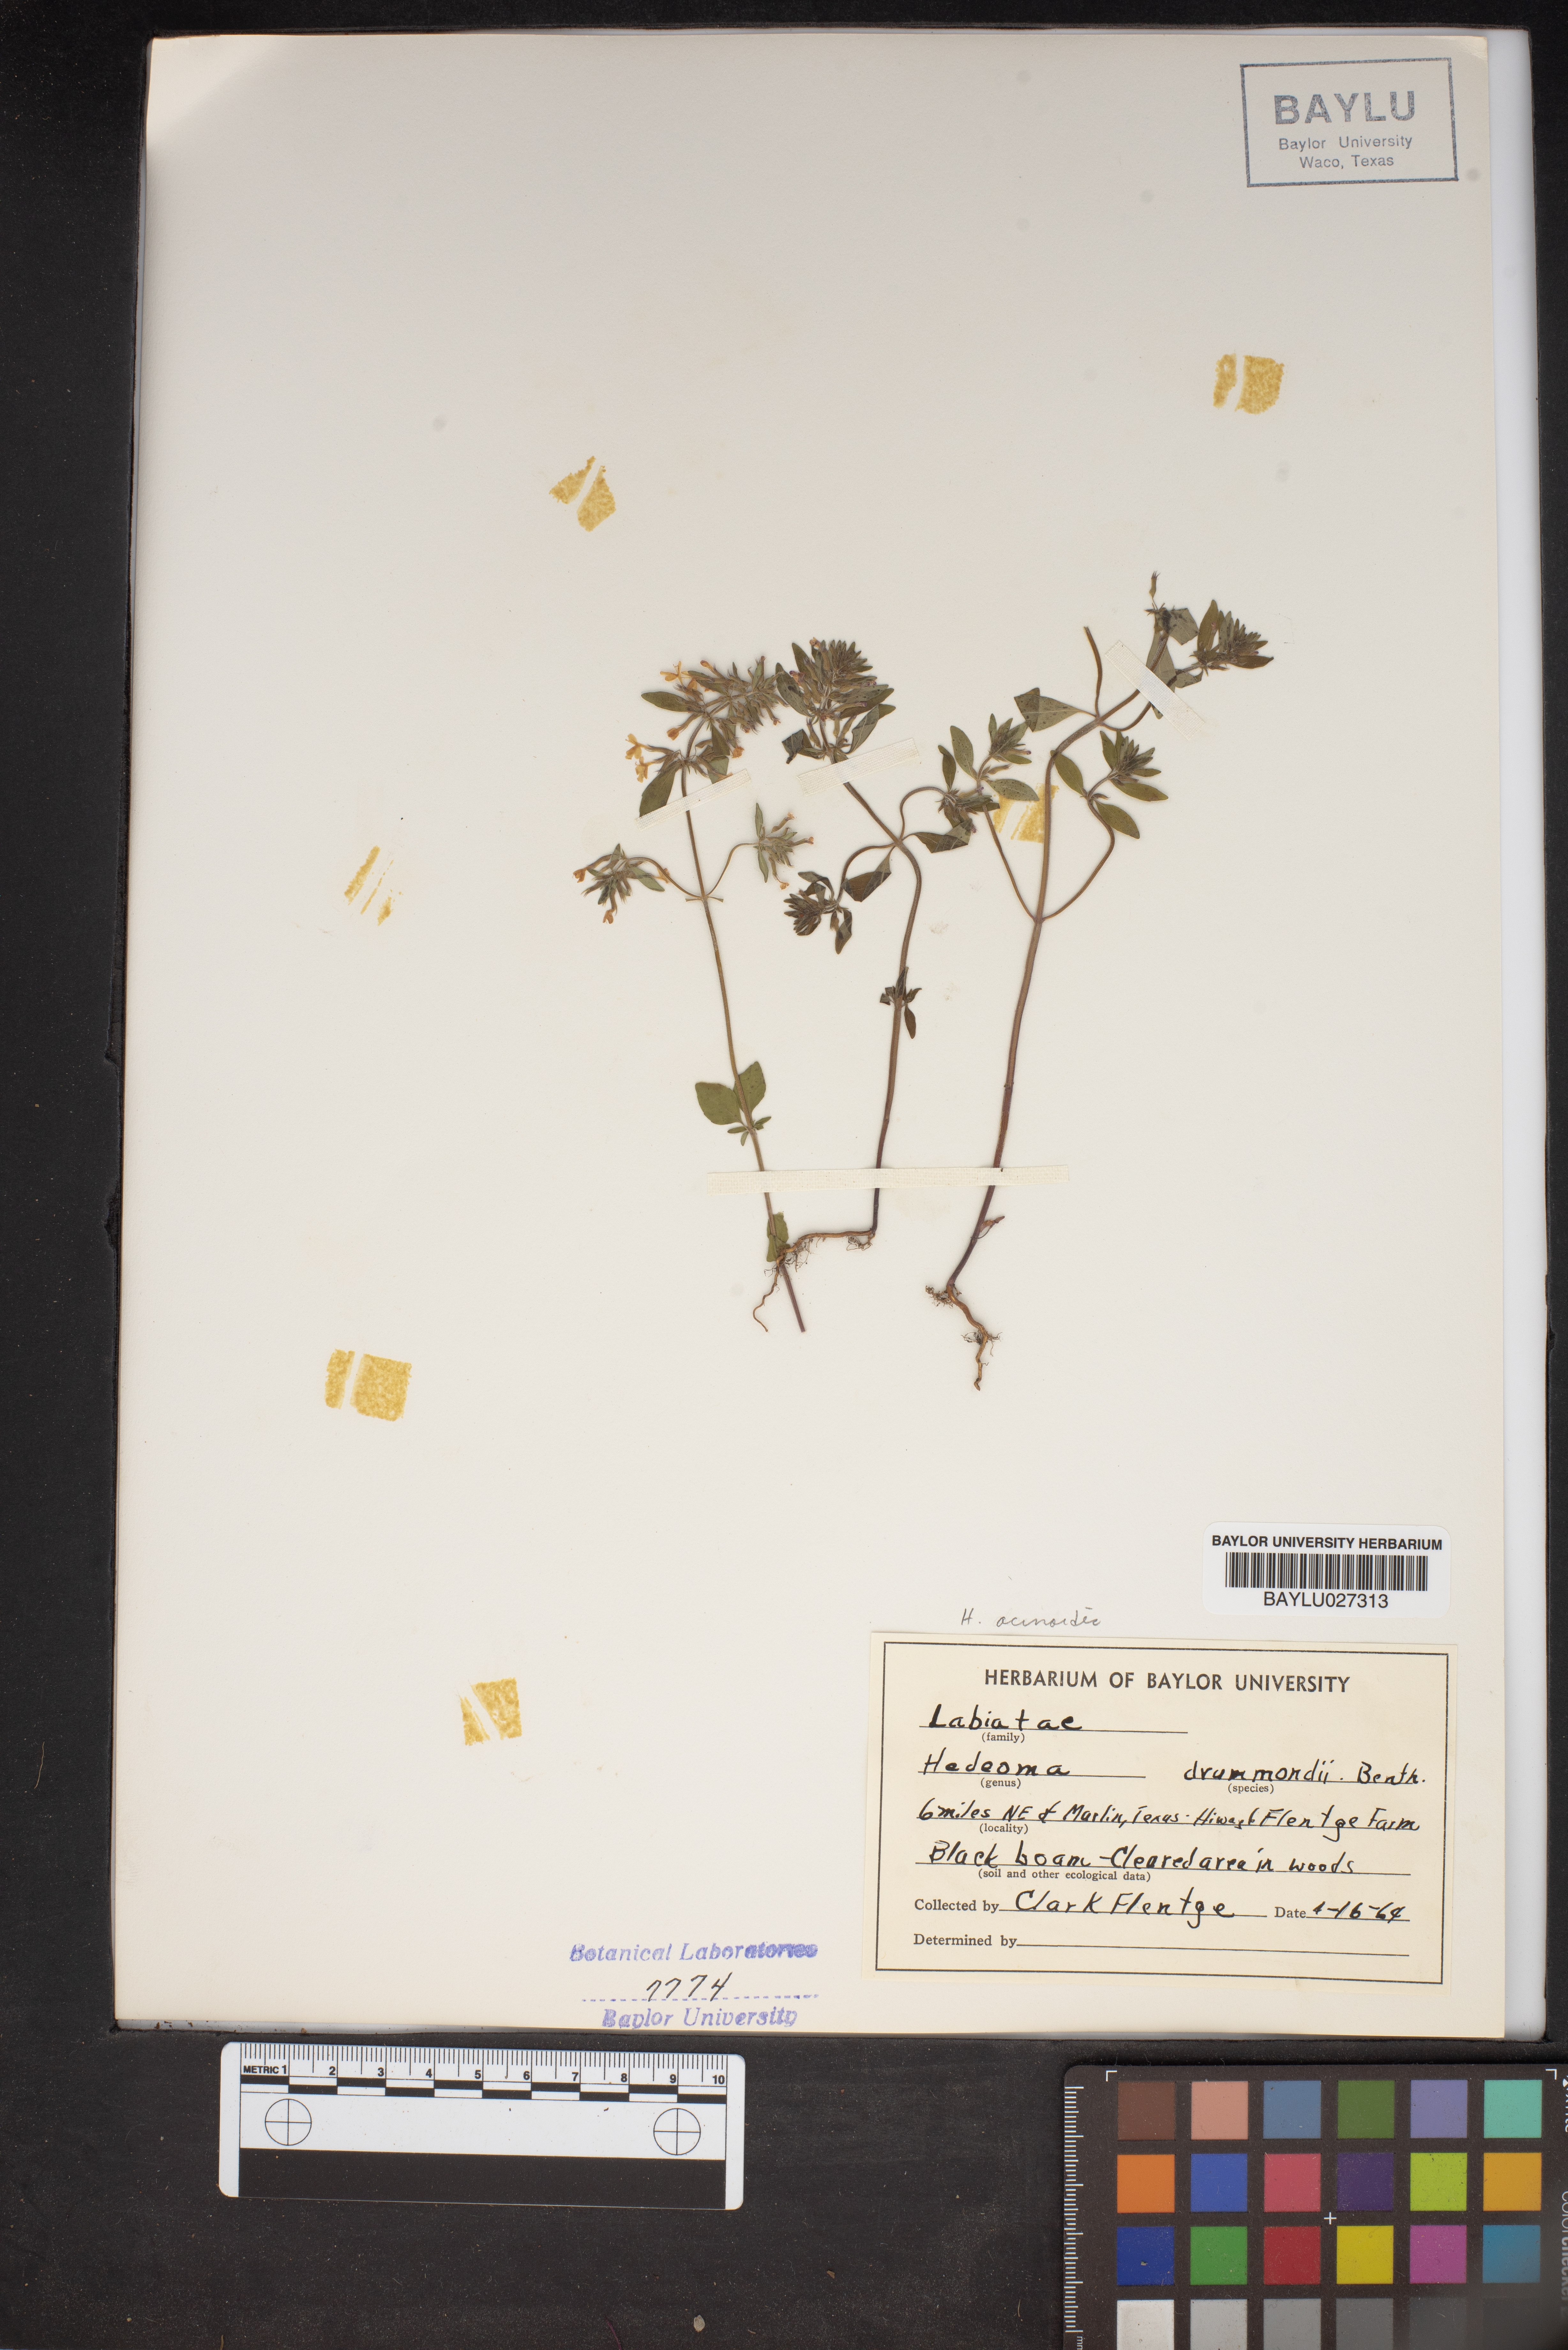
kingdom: Plantae
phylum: Tracheophyta
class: Magnoliopsida
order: Lamiales
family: Lamiaceae
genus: Hedeoma
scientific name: Hedeoma drummondii
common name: New mexico pennyroyal
